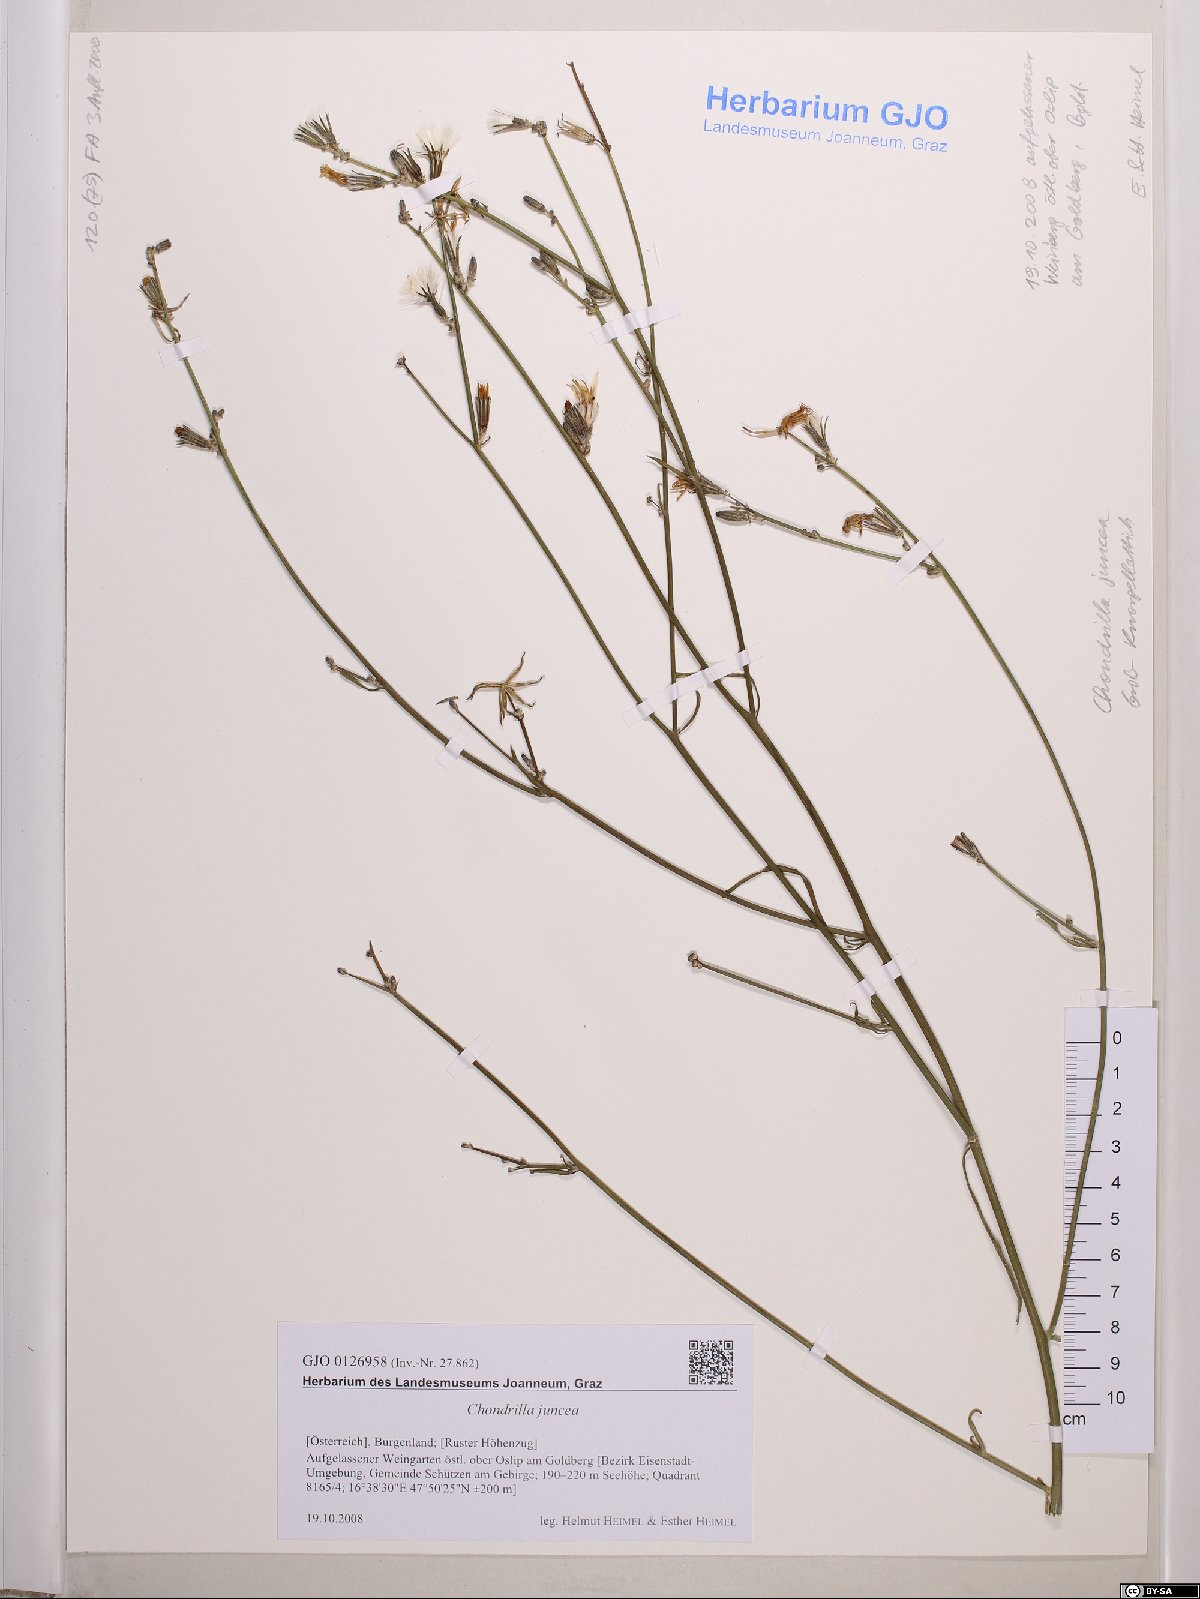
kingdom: Plantae
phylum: Tracheophyta
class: Magnoliopsida
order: Asterales
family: Asteraceae
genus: Chondrilla
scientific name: Chondrilla juncea
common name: Skeleton weed
